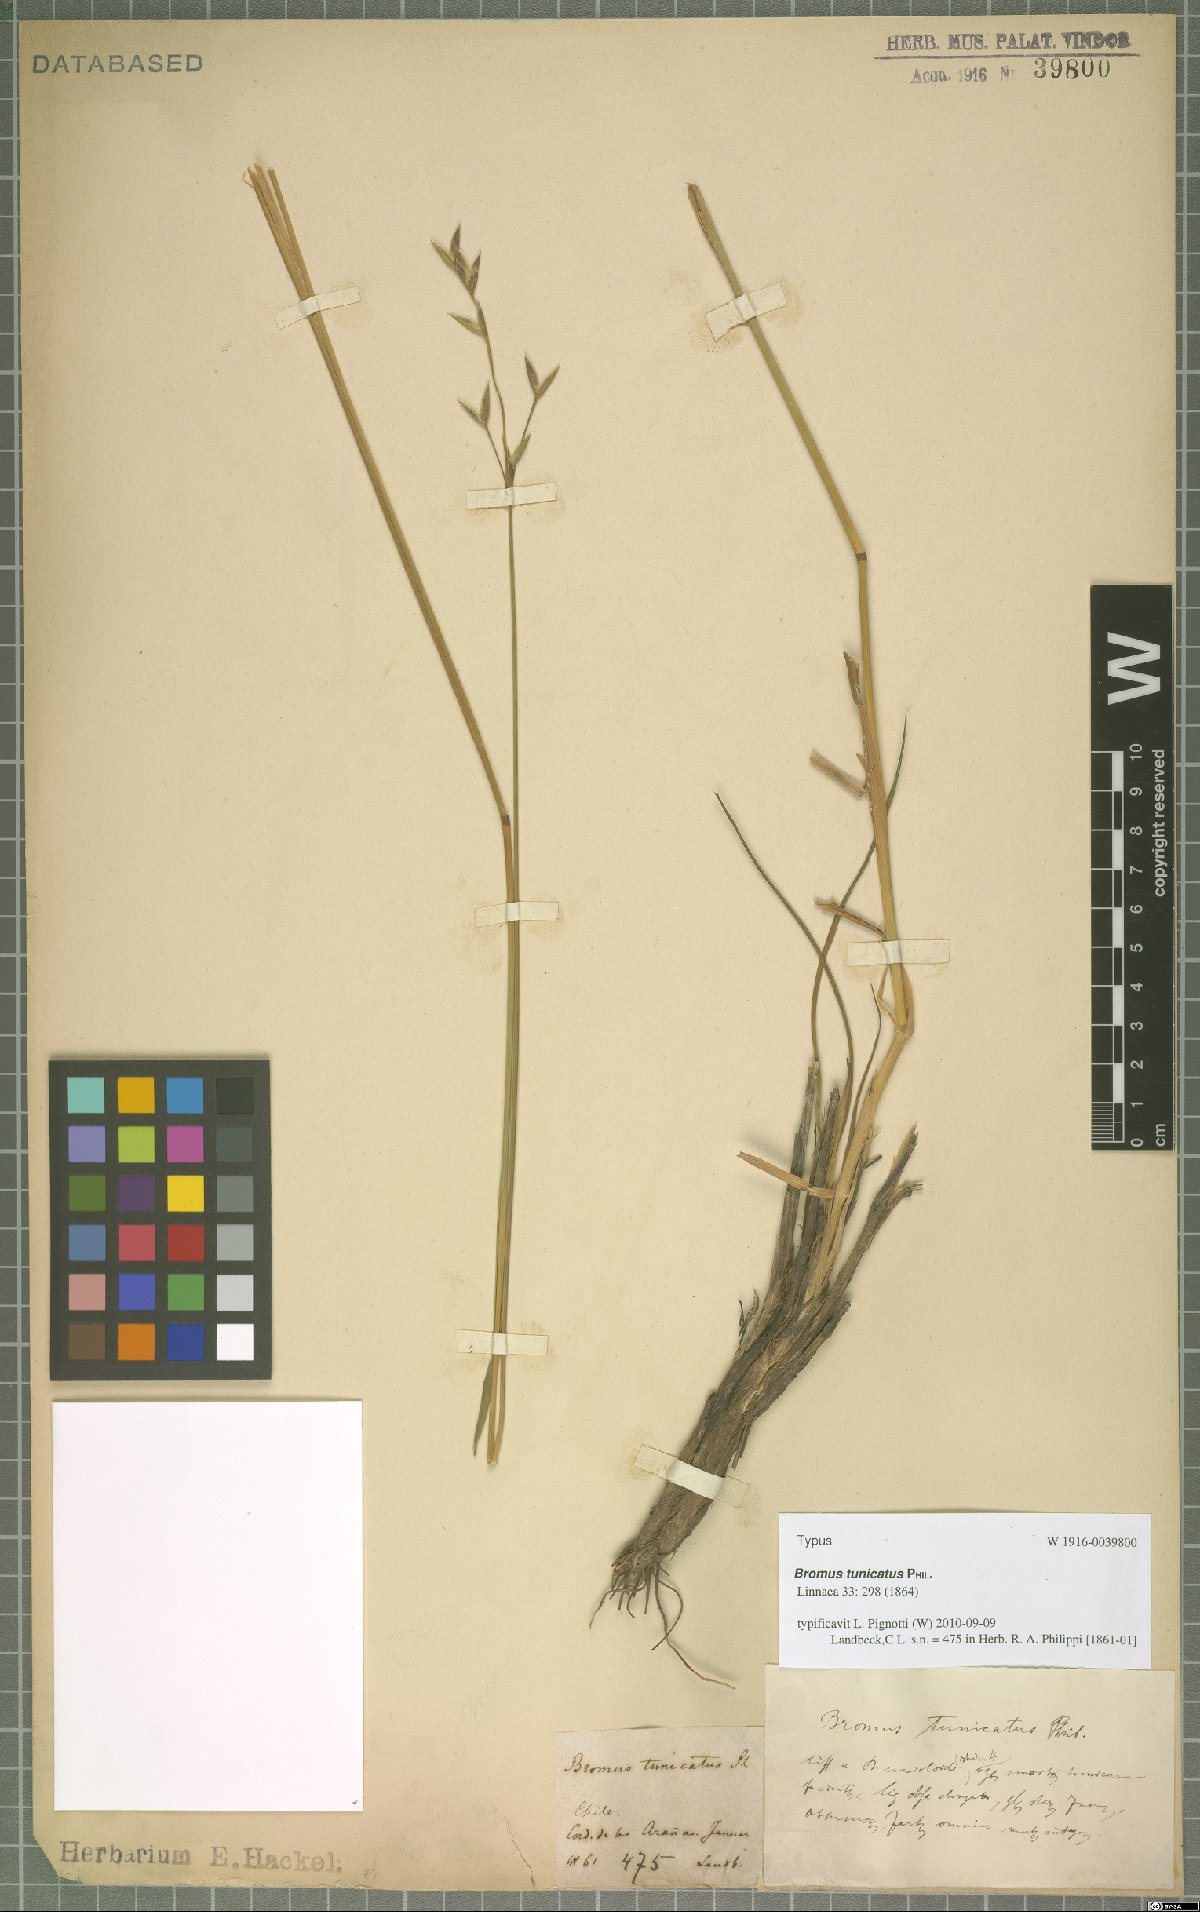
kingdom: Plantae
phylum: Tracheophyta
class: Liliopsida
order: Poales
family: Poaceae
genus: Bromus
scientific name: Bromus tunicatus
